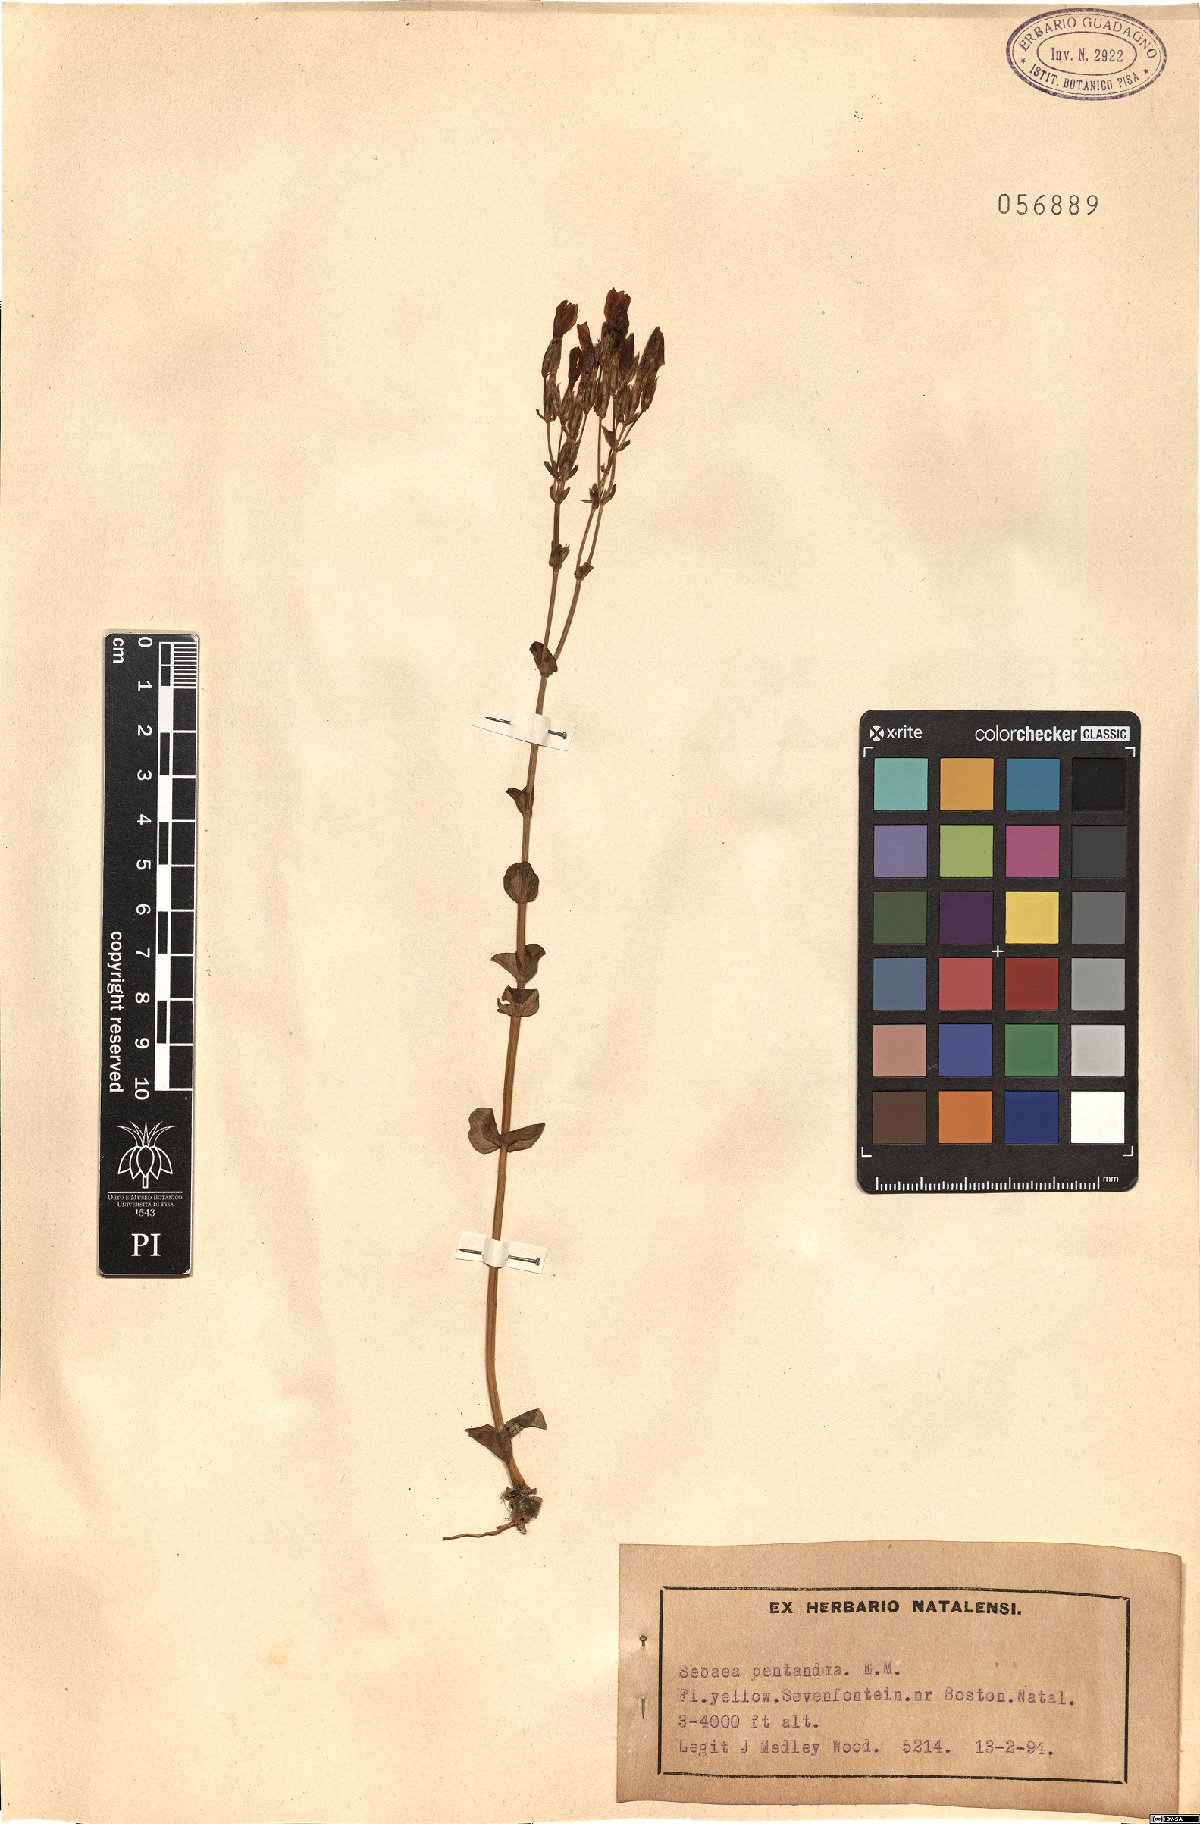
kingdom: Plantae
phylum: Tracheophyta
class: Magnoliopsida
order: Gentianales
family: Gentianaceae
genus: Sebaea
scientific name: Sebaea pentandra
